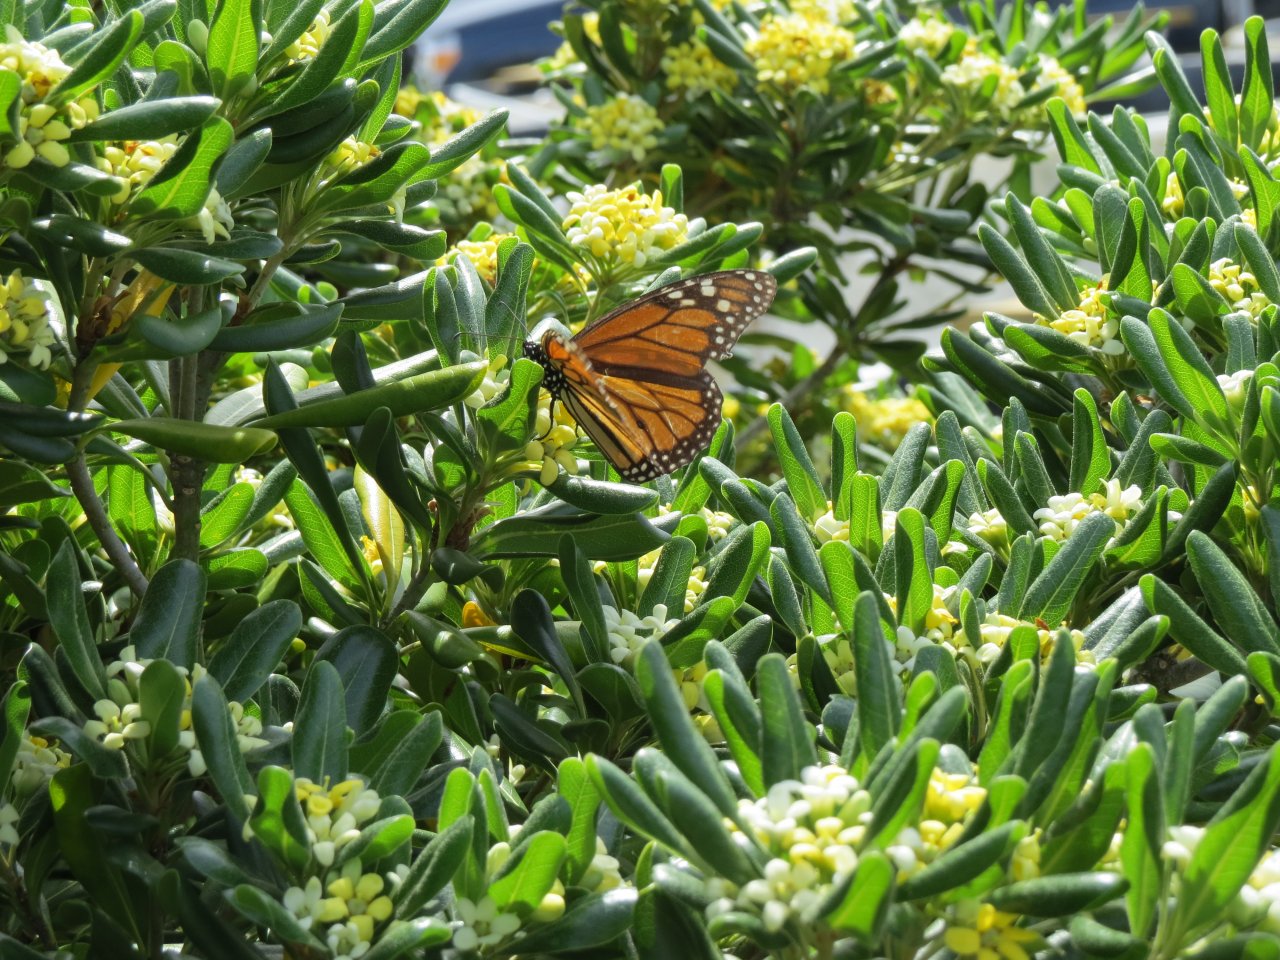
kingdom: Animalia
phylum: Arthropoda
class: Insecta
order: Lepidoptera
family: Nymphalidae
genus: Danaus
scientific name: Danaus plexippus
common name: Monarch
